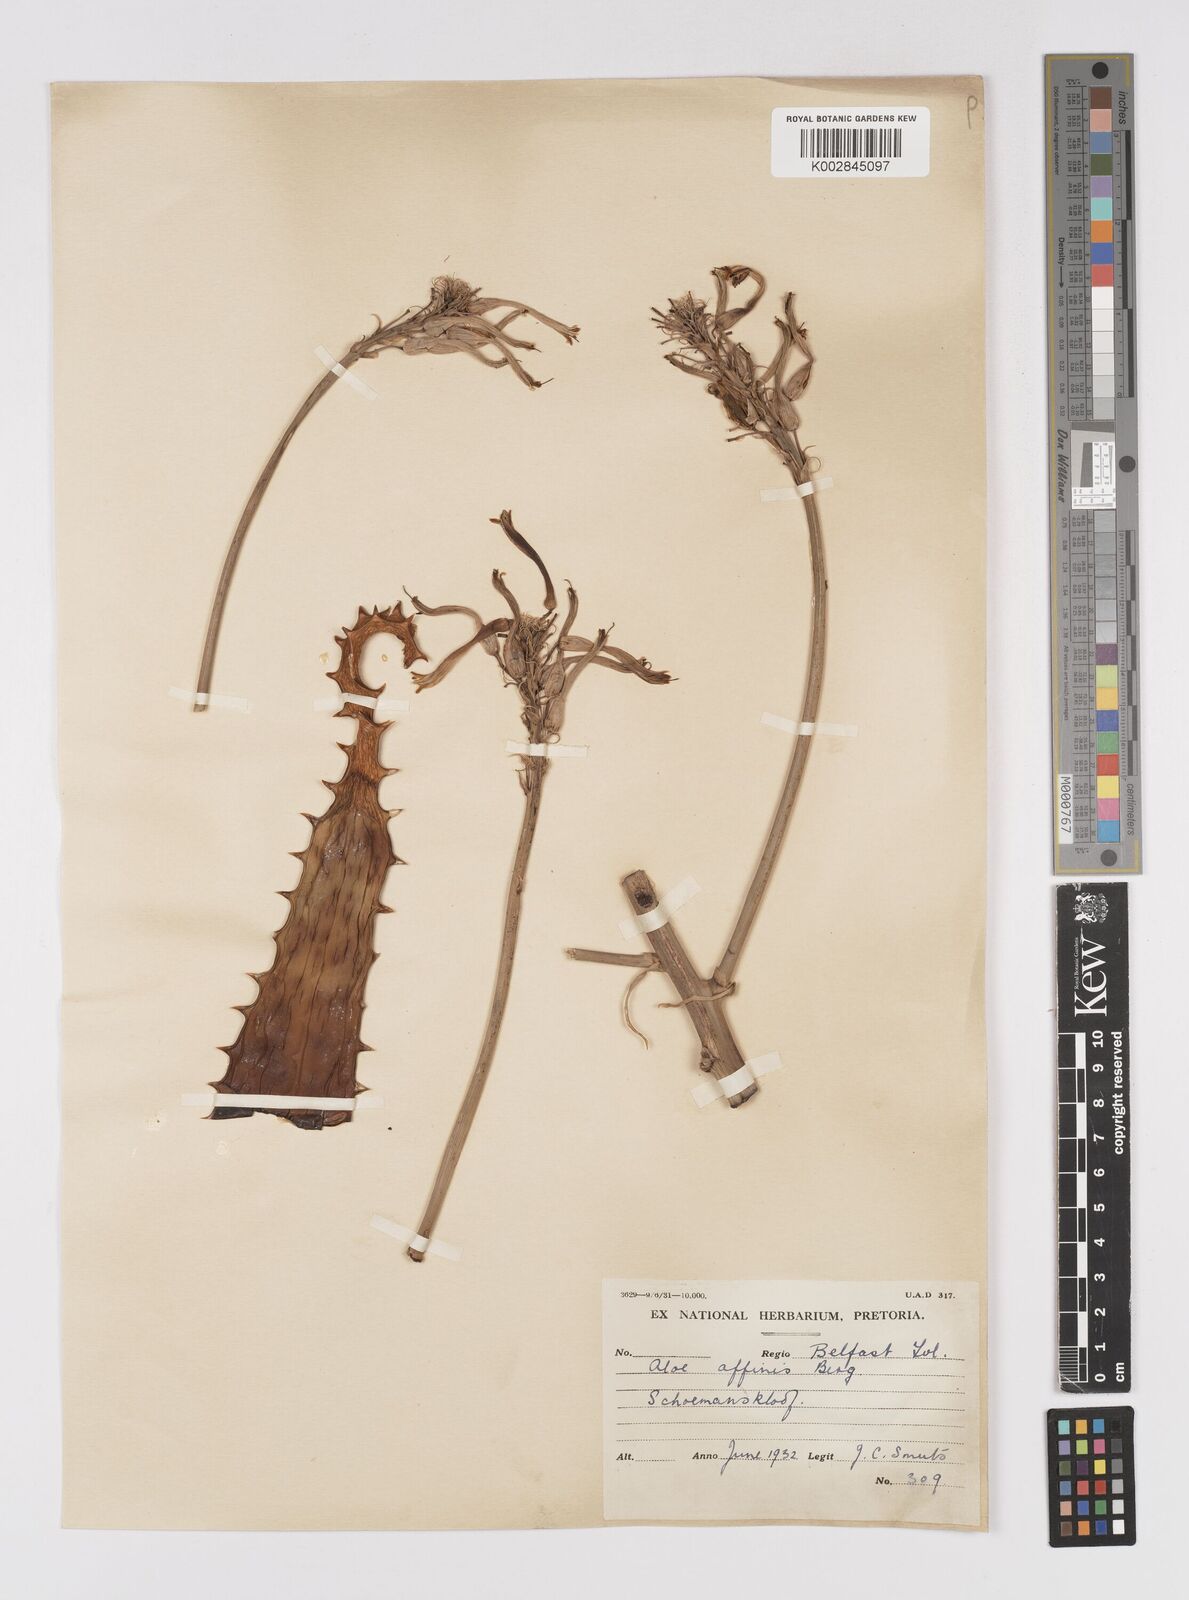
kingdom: Plantae
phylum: Tracheophyta
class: Liliopsida
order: Asparagales
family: Asphodelaceae
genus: Aloe
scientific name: Aloe affinis
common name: Spotted aloe
